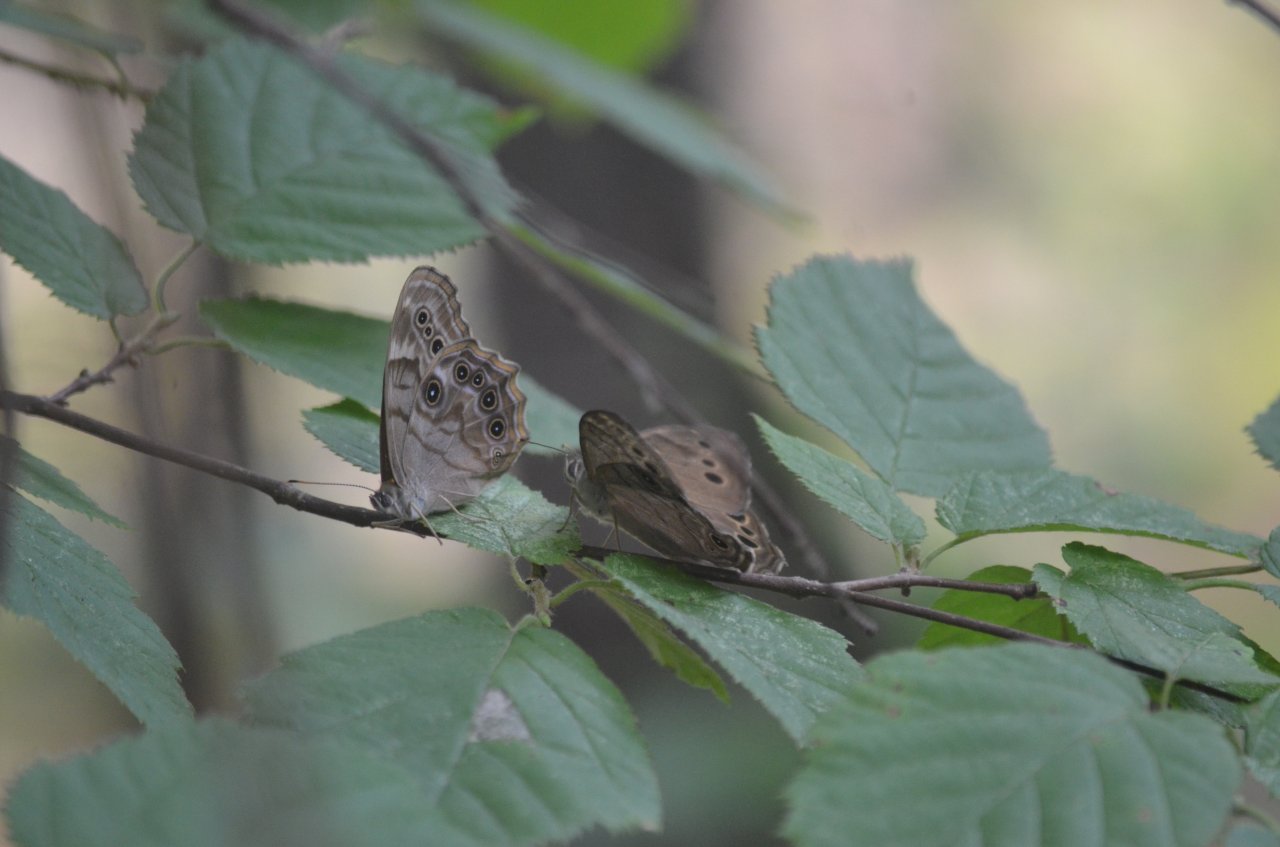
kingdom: Animalia
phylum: Arthropoda
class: Insecta
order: Lepidoptera
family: Nymphalidae
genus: Lethe
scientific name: Lethe anthedon
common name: Northern Pearly-Eye
